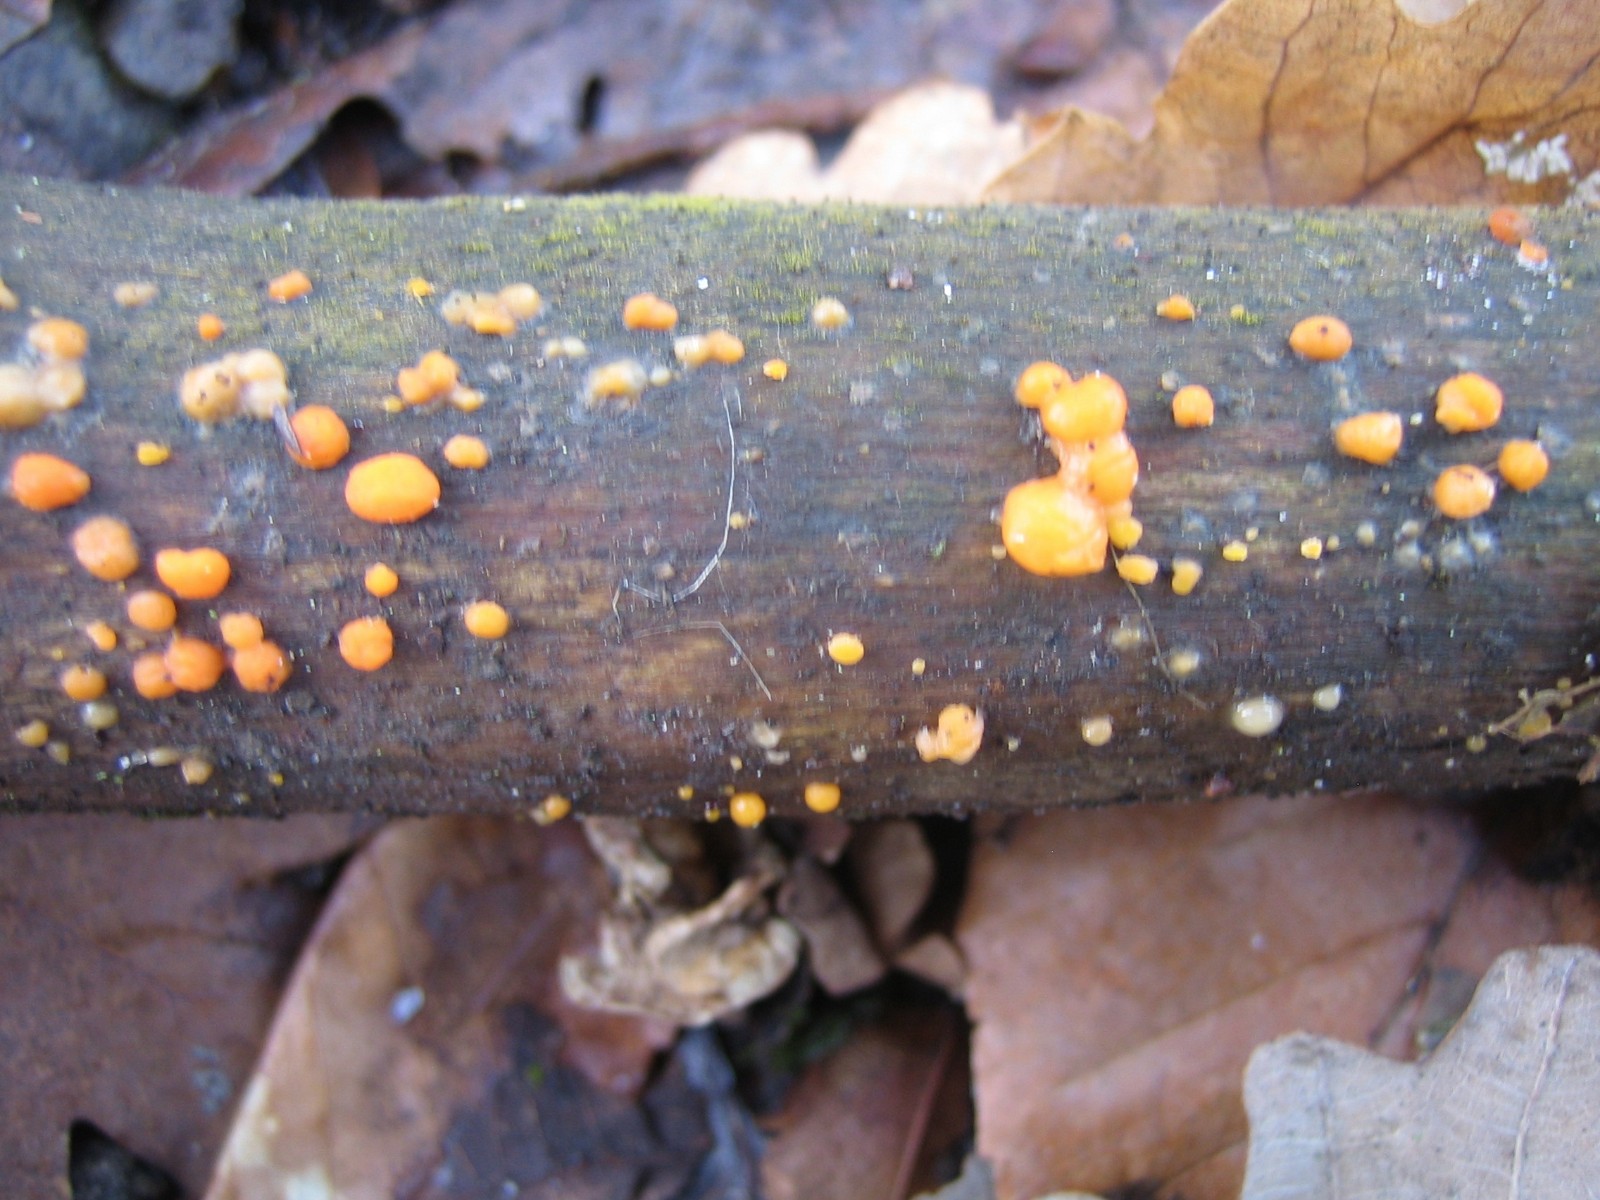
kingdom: Fungi
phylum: Basidiomycota
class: Dacrymycetes
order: Dacrymycetales
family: Dacrymycetaceae
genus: Dacrymyces
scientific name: Dacrymyces stillatus
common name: almindelig tåresvamp
